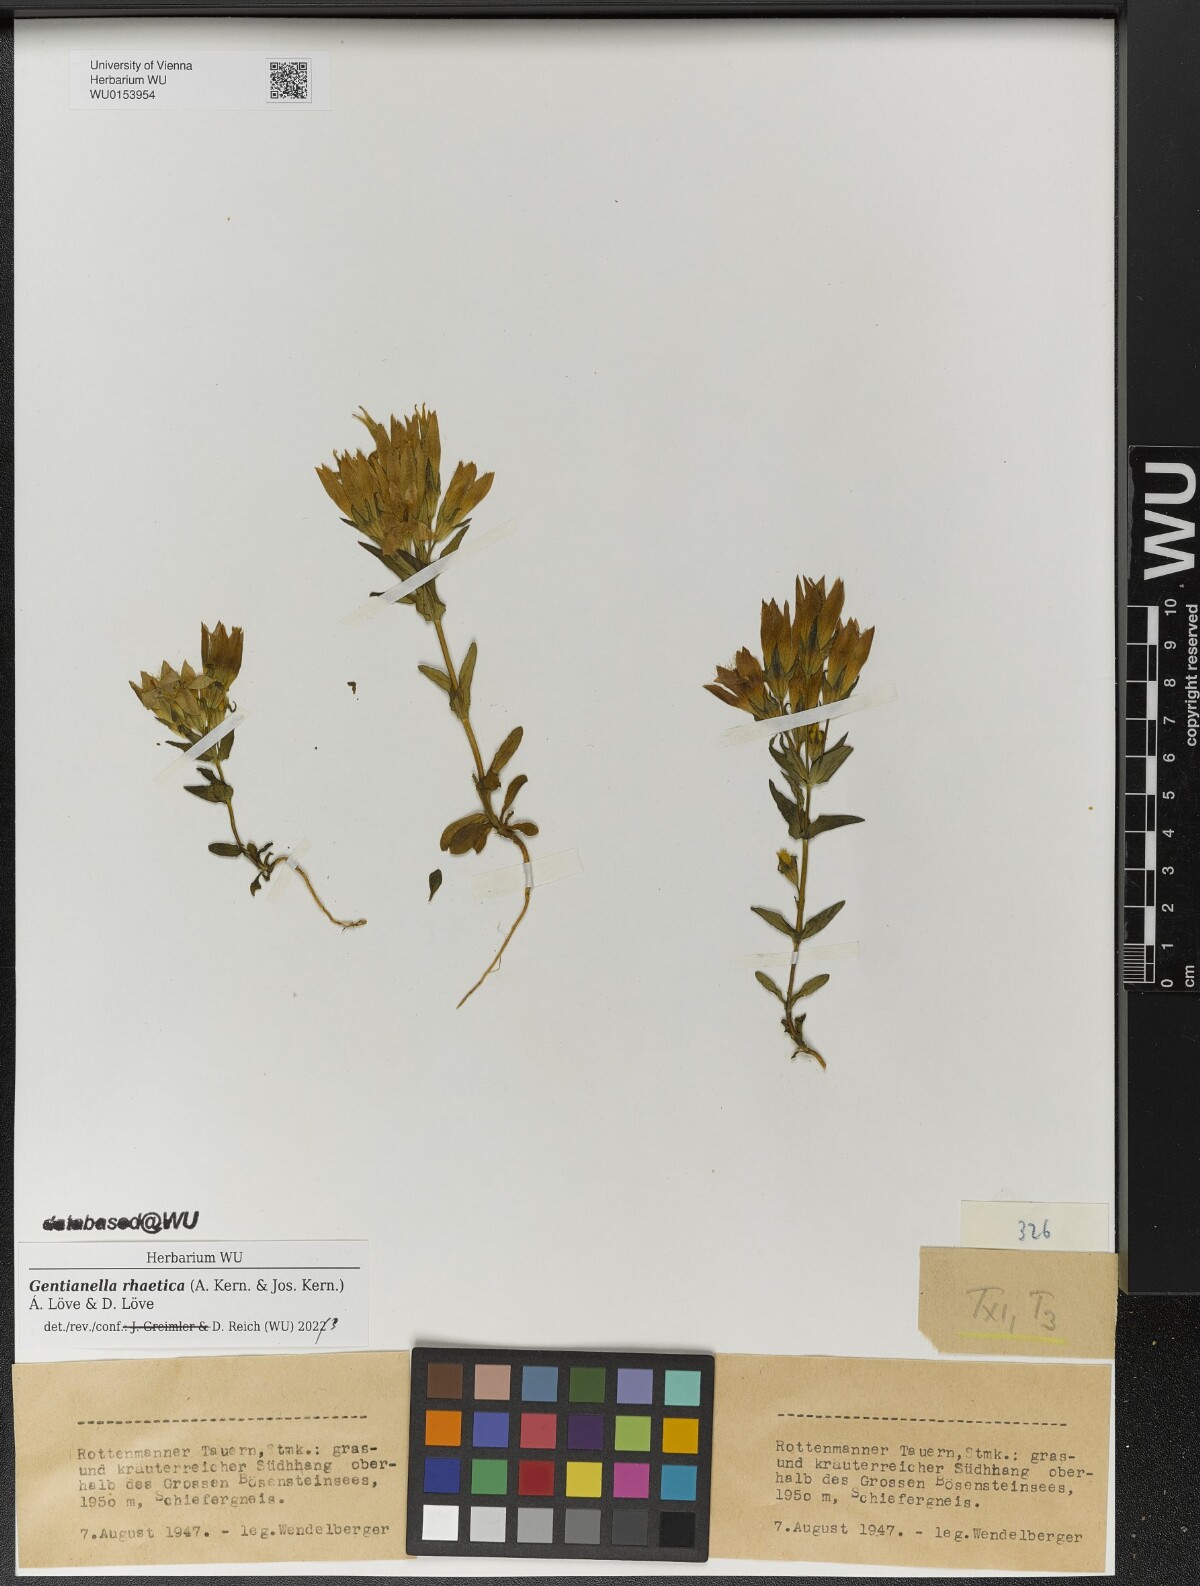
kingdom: Plantae
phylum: Tracheophyta
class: Magnoliopsida
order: Gentianales
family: Gentianaceae
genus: Gentianella
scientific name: Gentianella rhaetica
